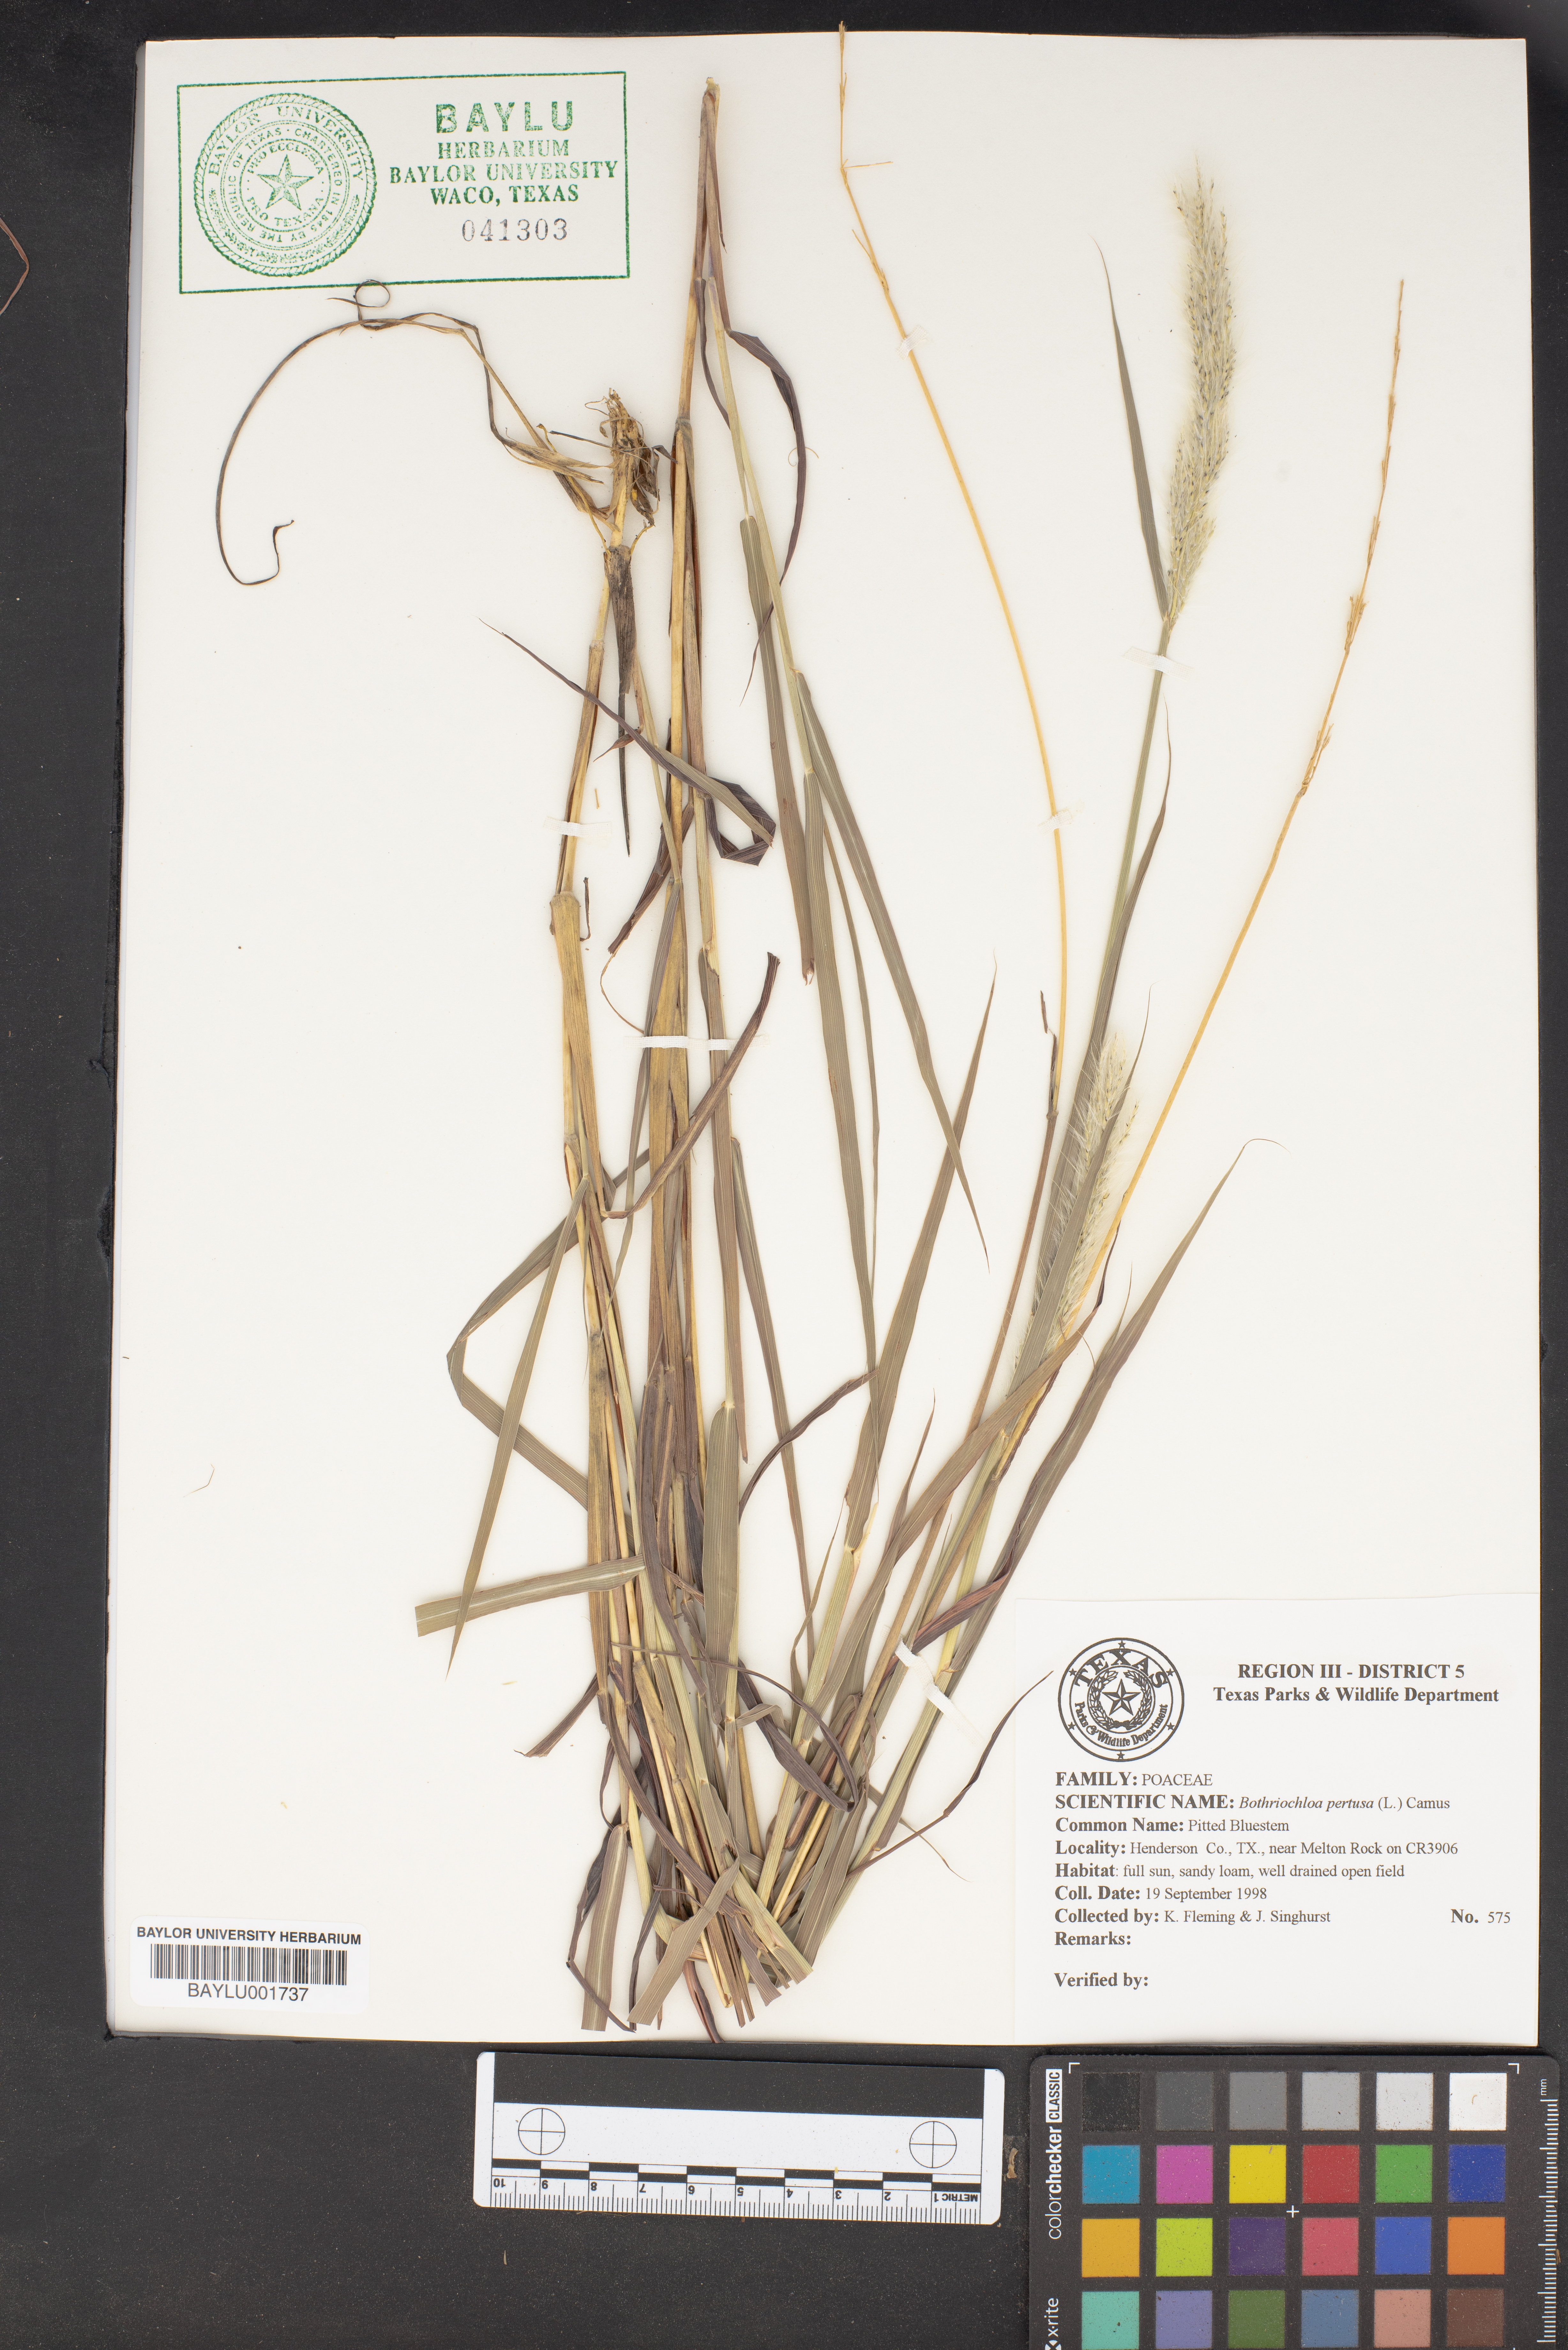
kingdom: Plantae
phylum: Tracheophyta
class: Liliopsida
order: Poales
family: Poaceae
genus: Bothriochloa
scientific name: Bothriochloa pertusa
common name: Pitted beardgrass
